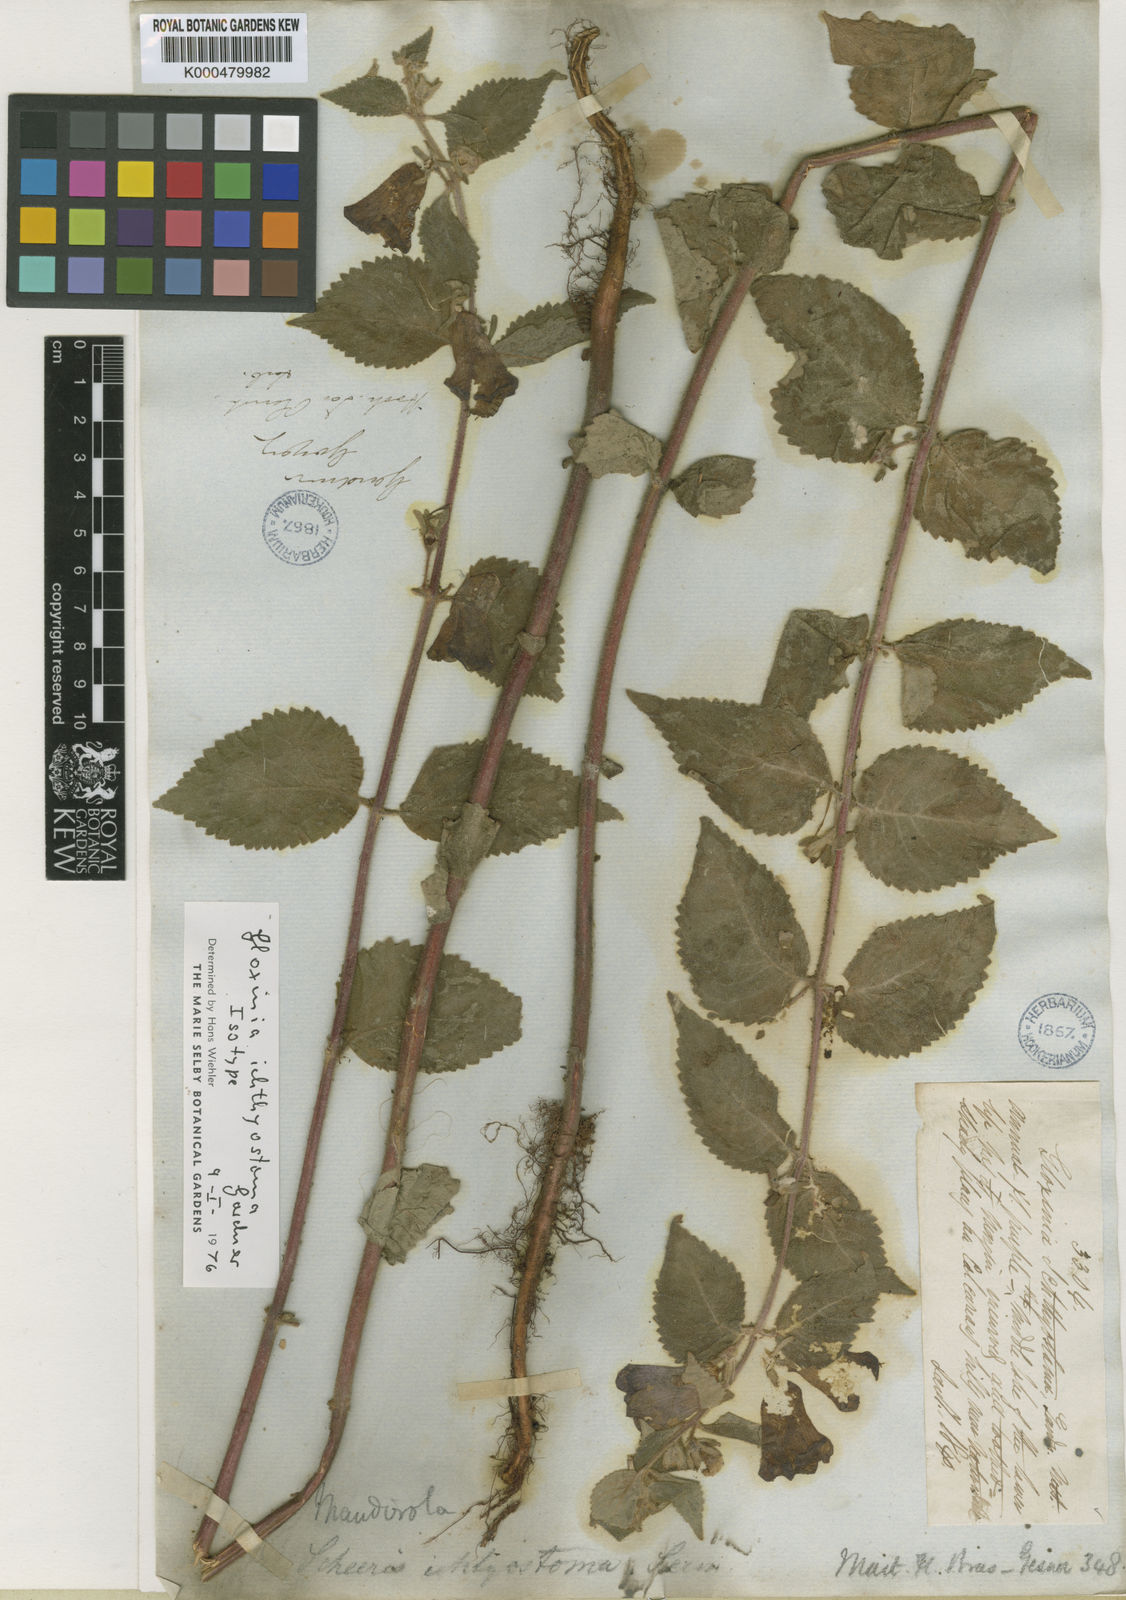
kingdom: Plantae
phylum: Tracheophyta
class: Magnoliopsida
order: Lamiales
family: Gesneriaceae
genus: Mandirola
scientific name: Mandirola ichthyostoma
